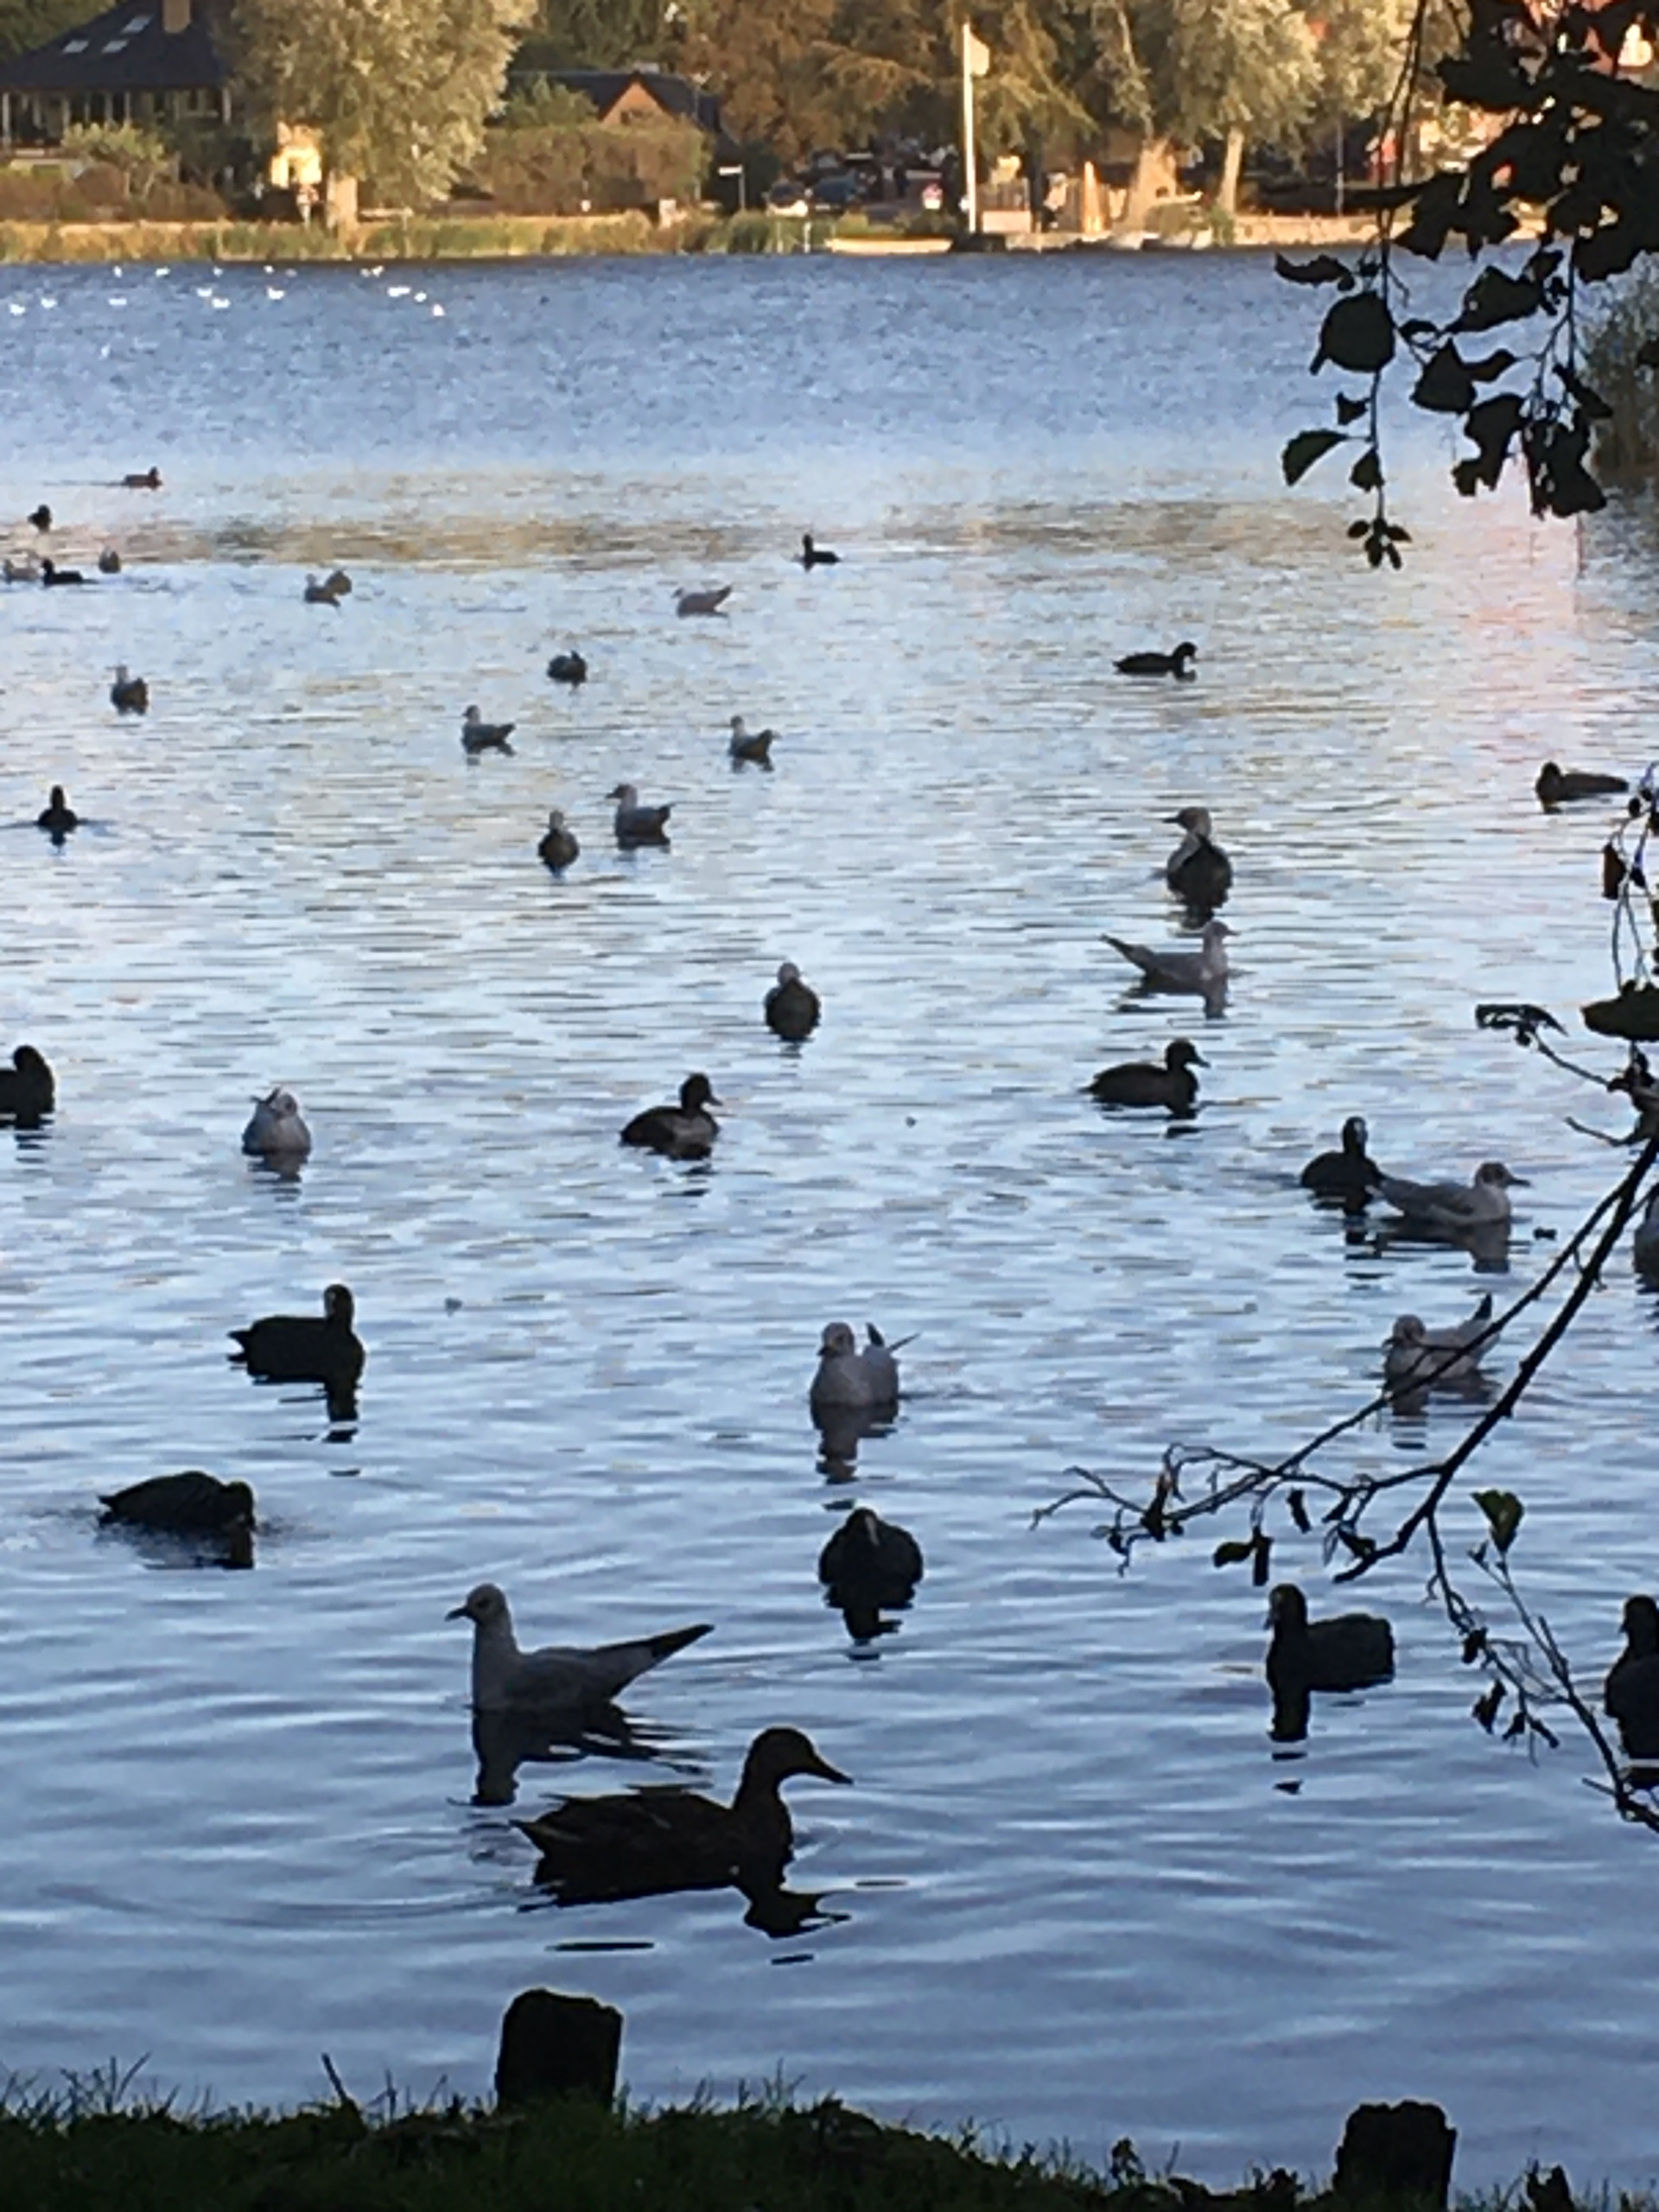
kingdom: Animalia
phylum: Chordata
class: Aves
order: Gruiformes
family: Rallidae
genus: Fulica
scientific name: Fulica atra
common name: Blishøne
